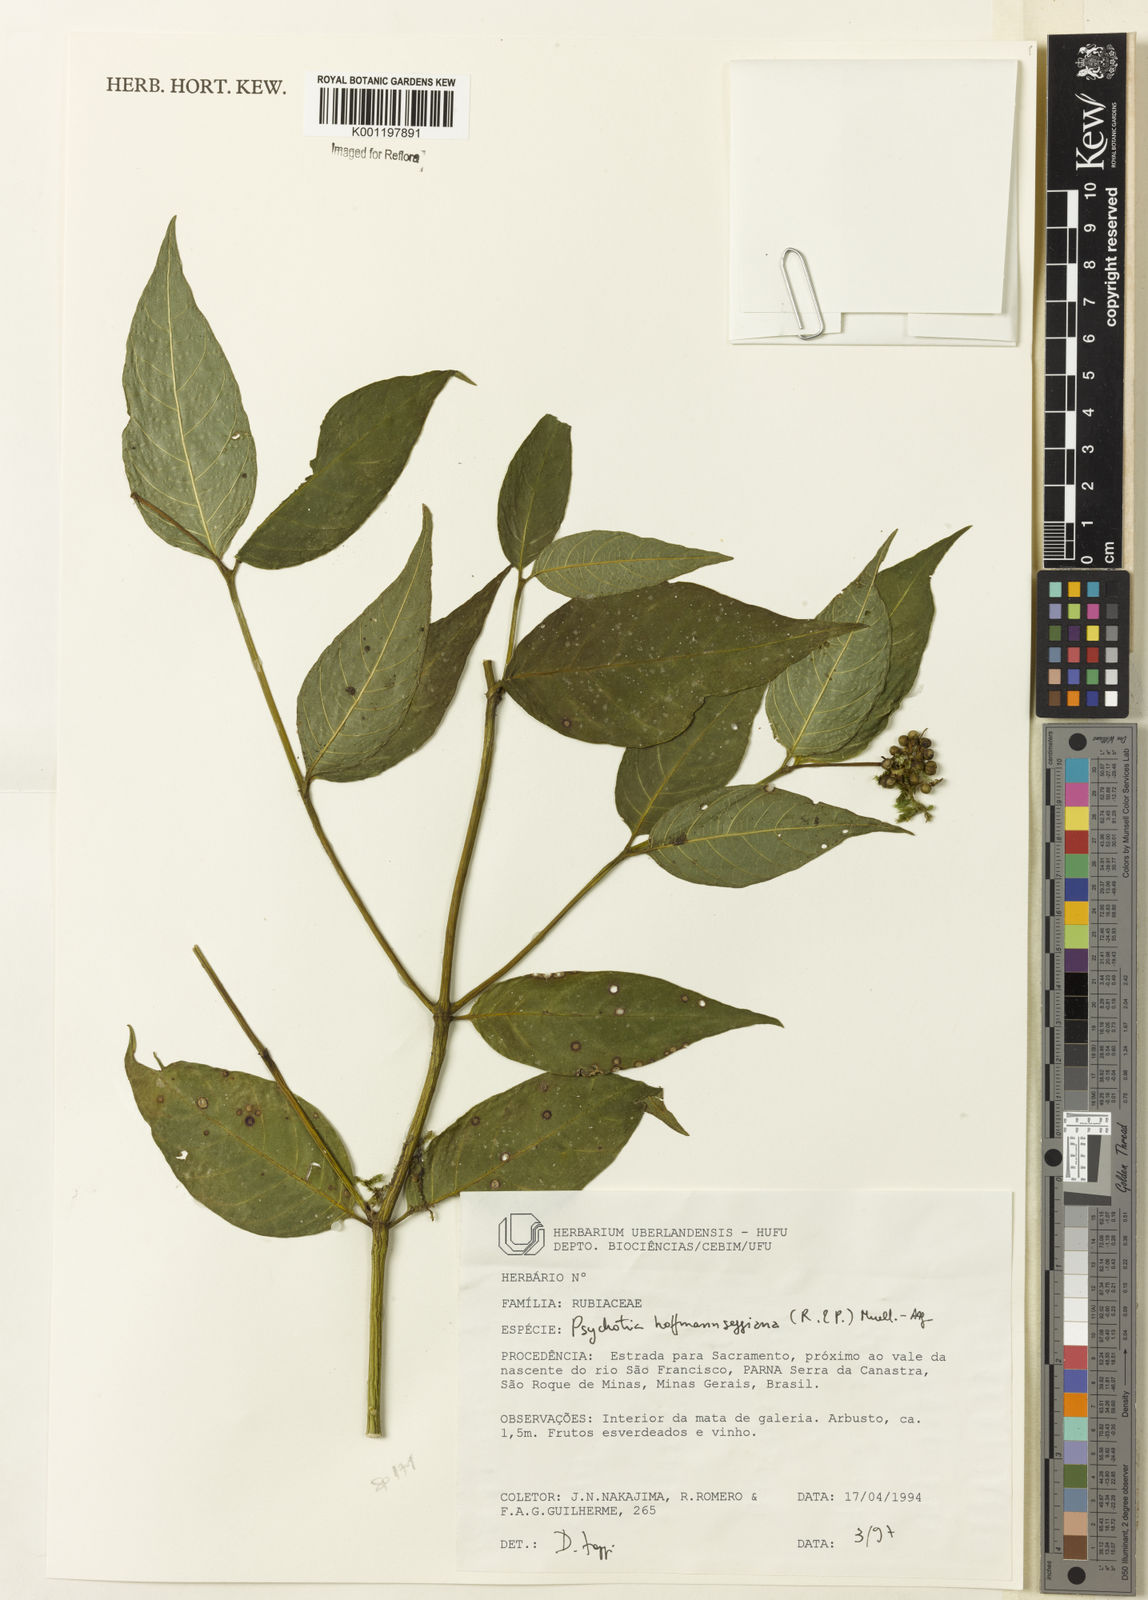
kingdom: Plantae
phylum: Tracheophyta
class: Magnoliopsida
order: Gentianales
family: Rubiaceae
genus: Psychotria
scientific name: Psychotria
